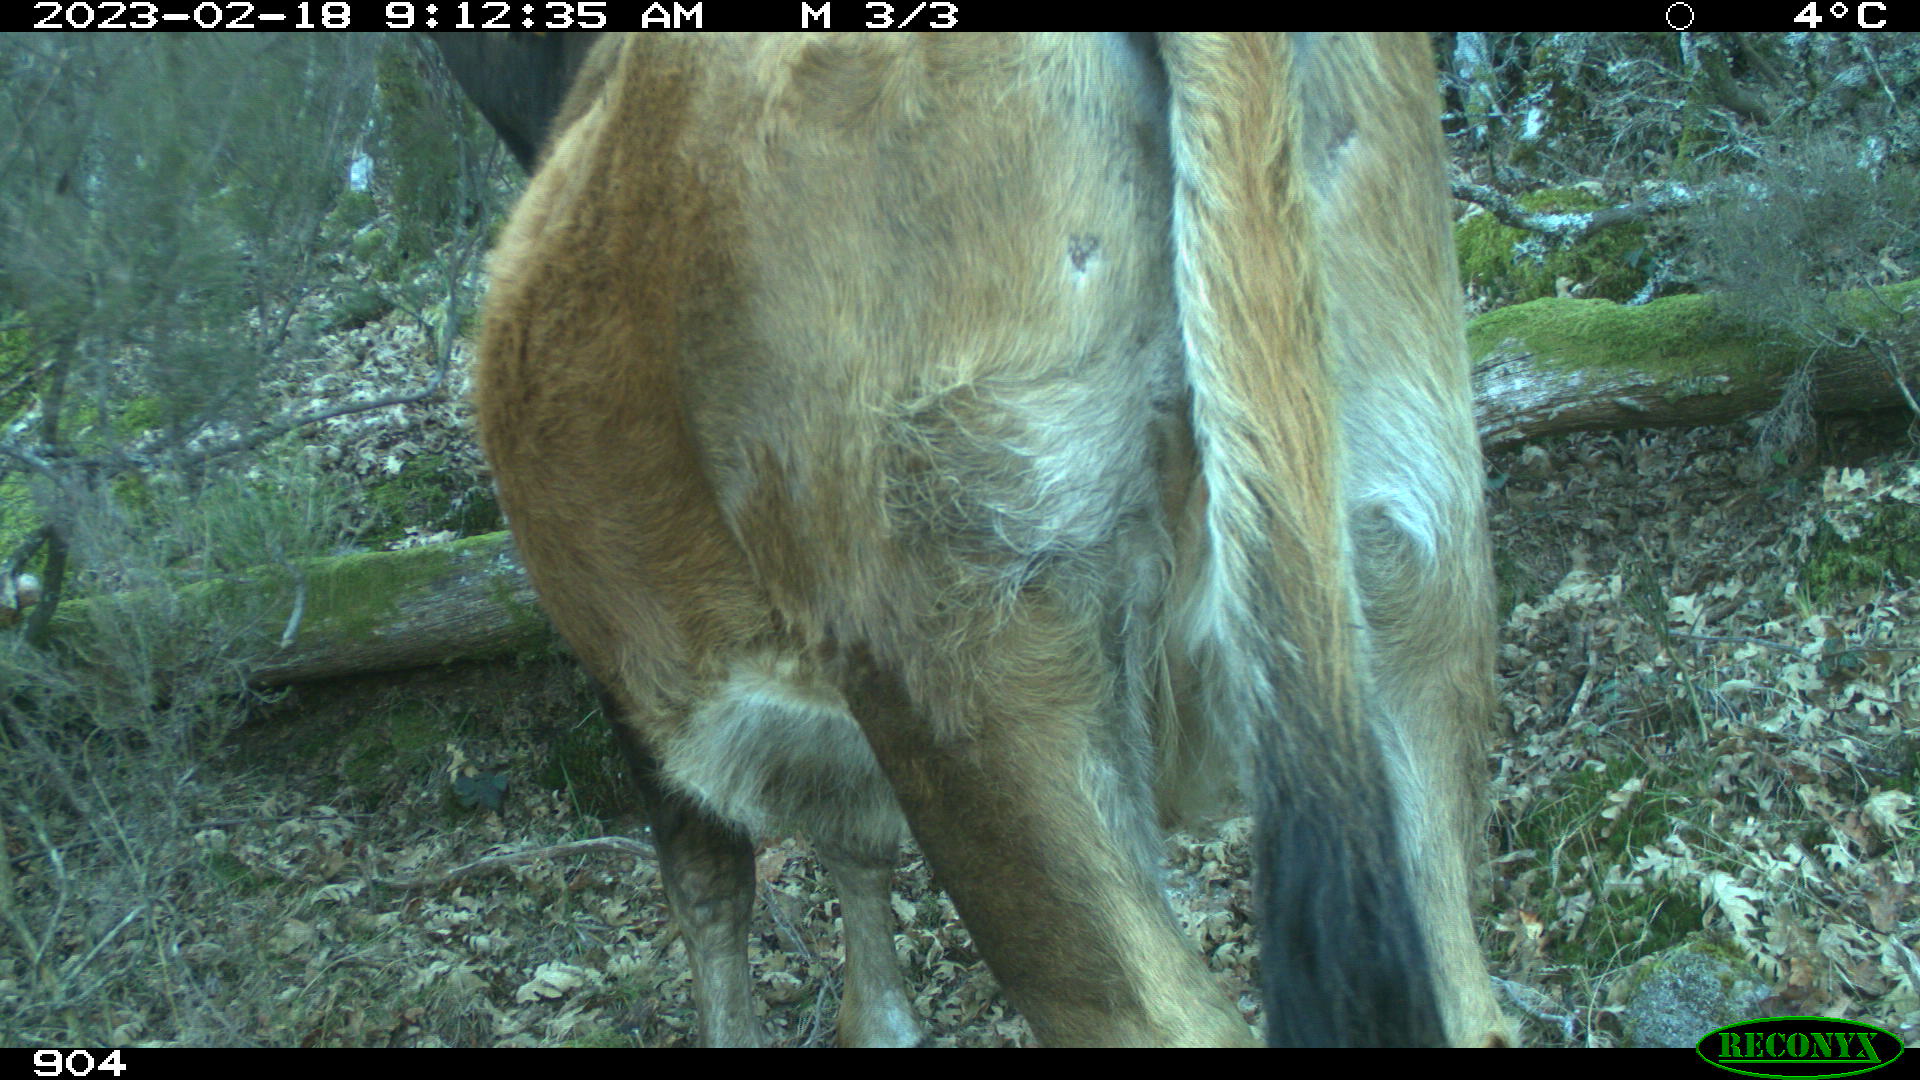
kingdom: Animalia
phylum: Chordata
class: Mammalia
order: Artiodactyla
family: Bovidae
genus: Bos
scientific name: Bos taurus
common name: Domesticated cattle
